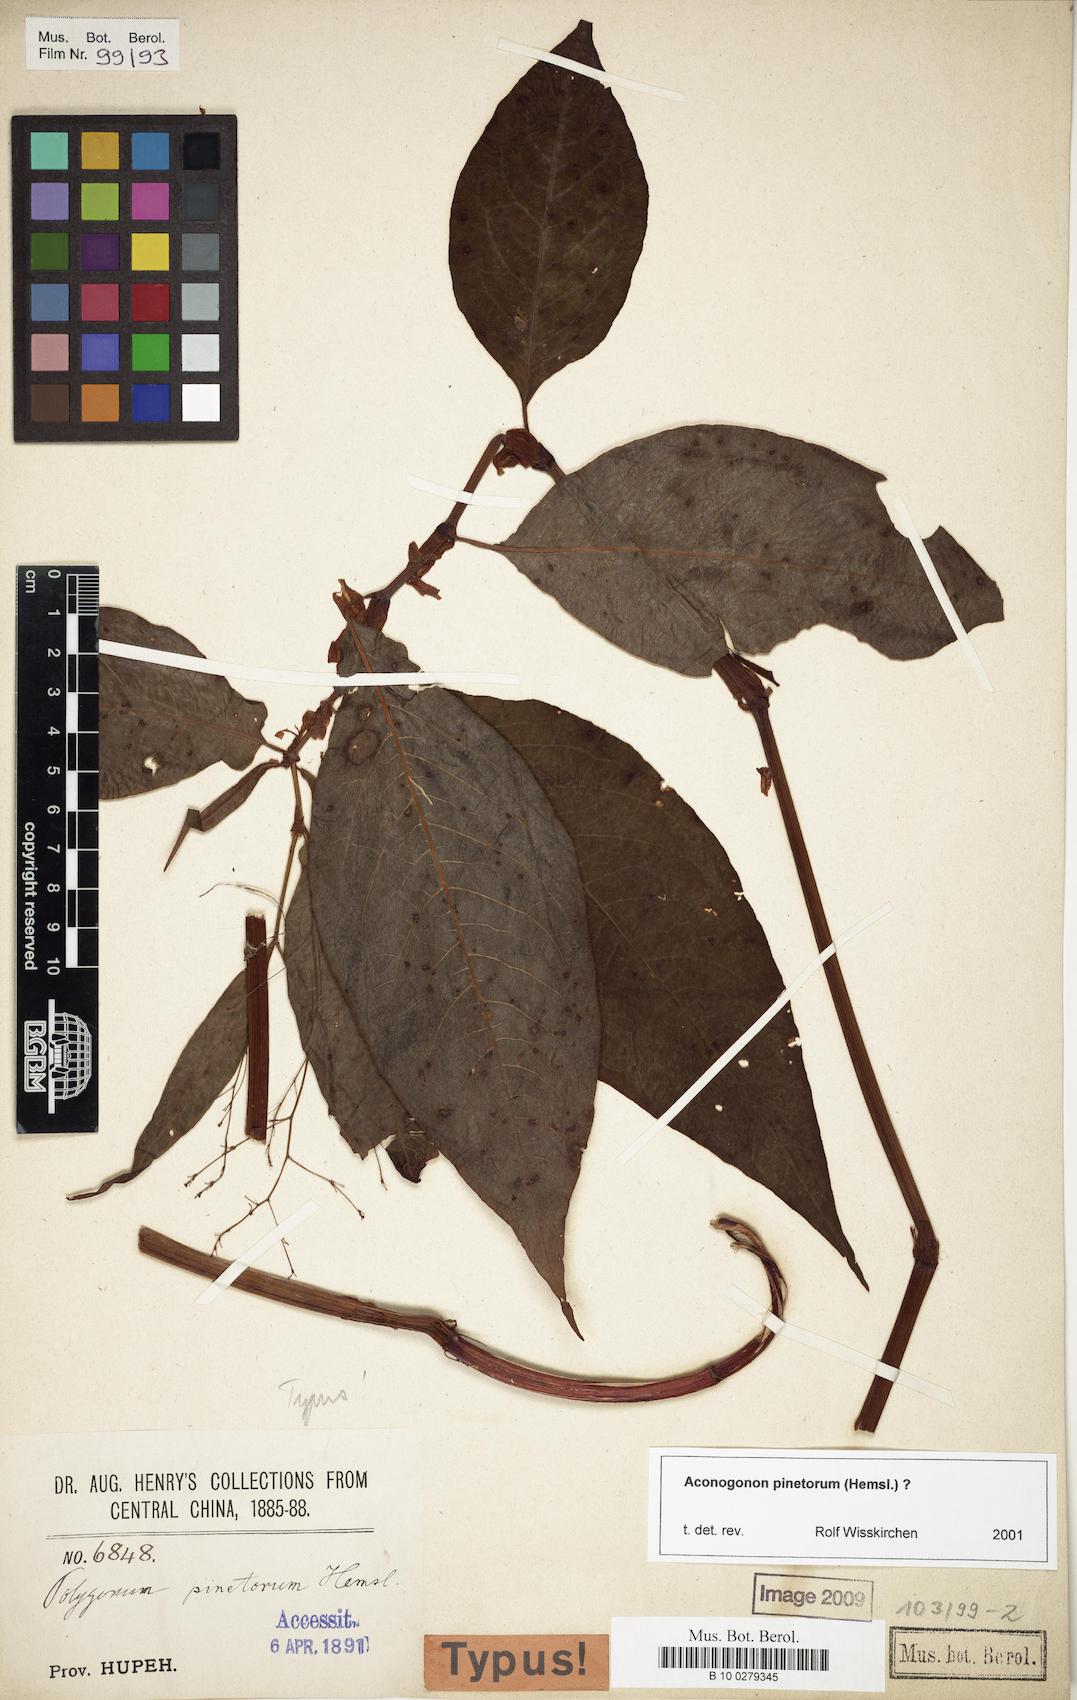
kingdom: Plantae
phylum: Tracheophyta
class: Magnoliopsida
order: Caryophyllales
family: Polygonaceae
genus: Persicaria
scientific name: Persicaria pinetora
